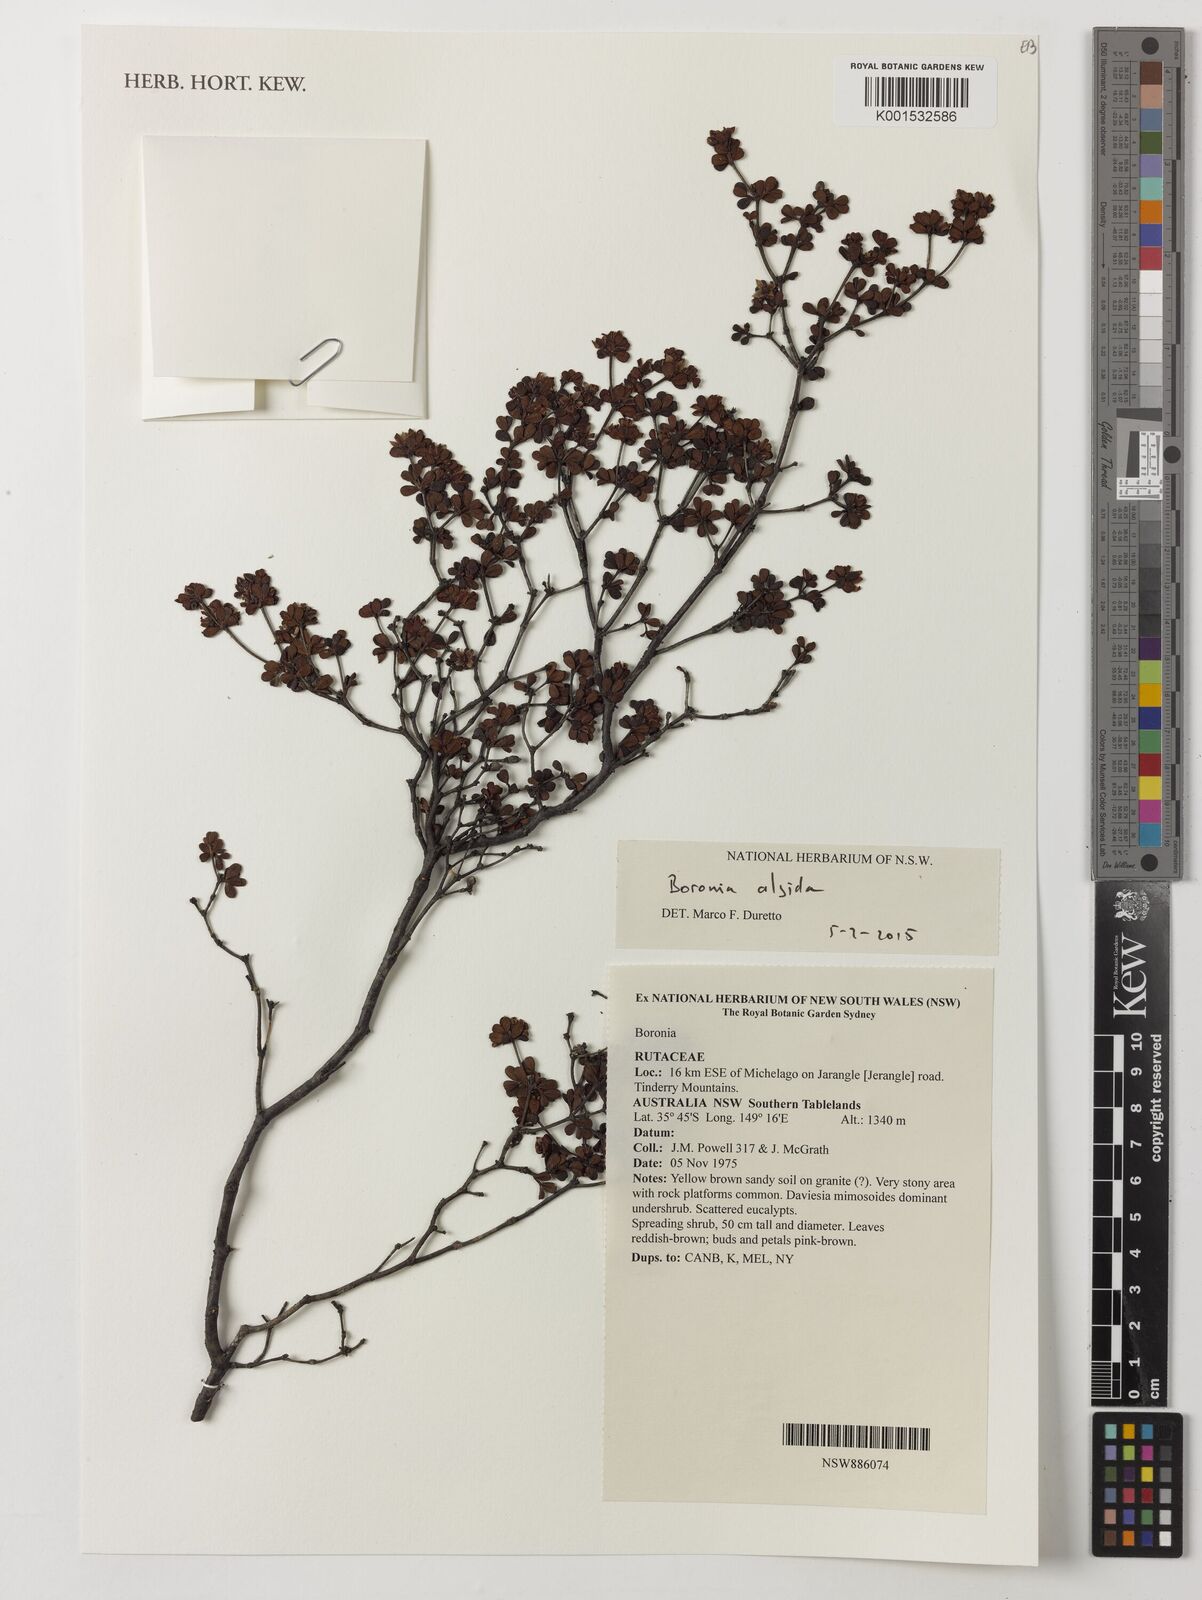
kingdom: Plantae
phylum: Tracheophyta
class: Magnoliopsida
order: Sapindales
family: Rutaceae
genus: Boronia
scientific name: Boronia algida
